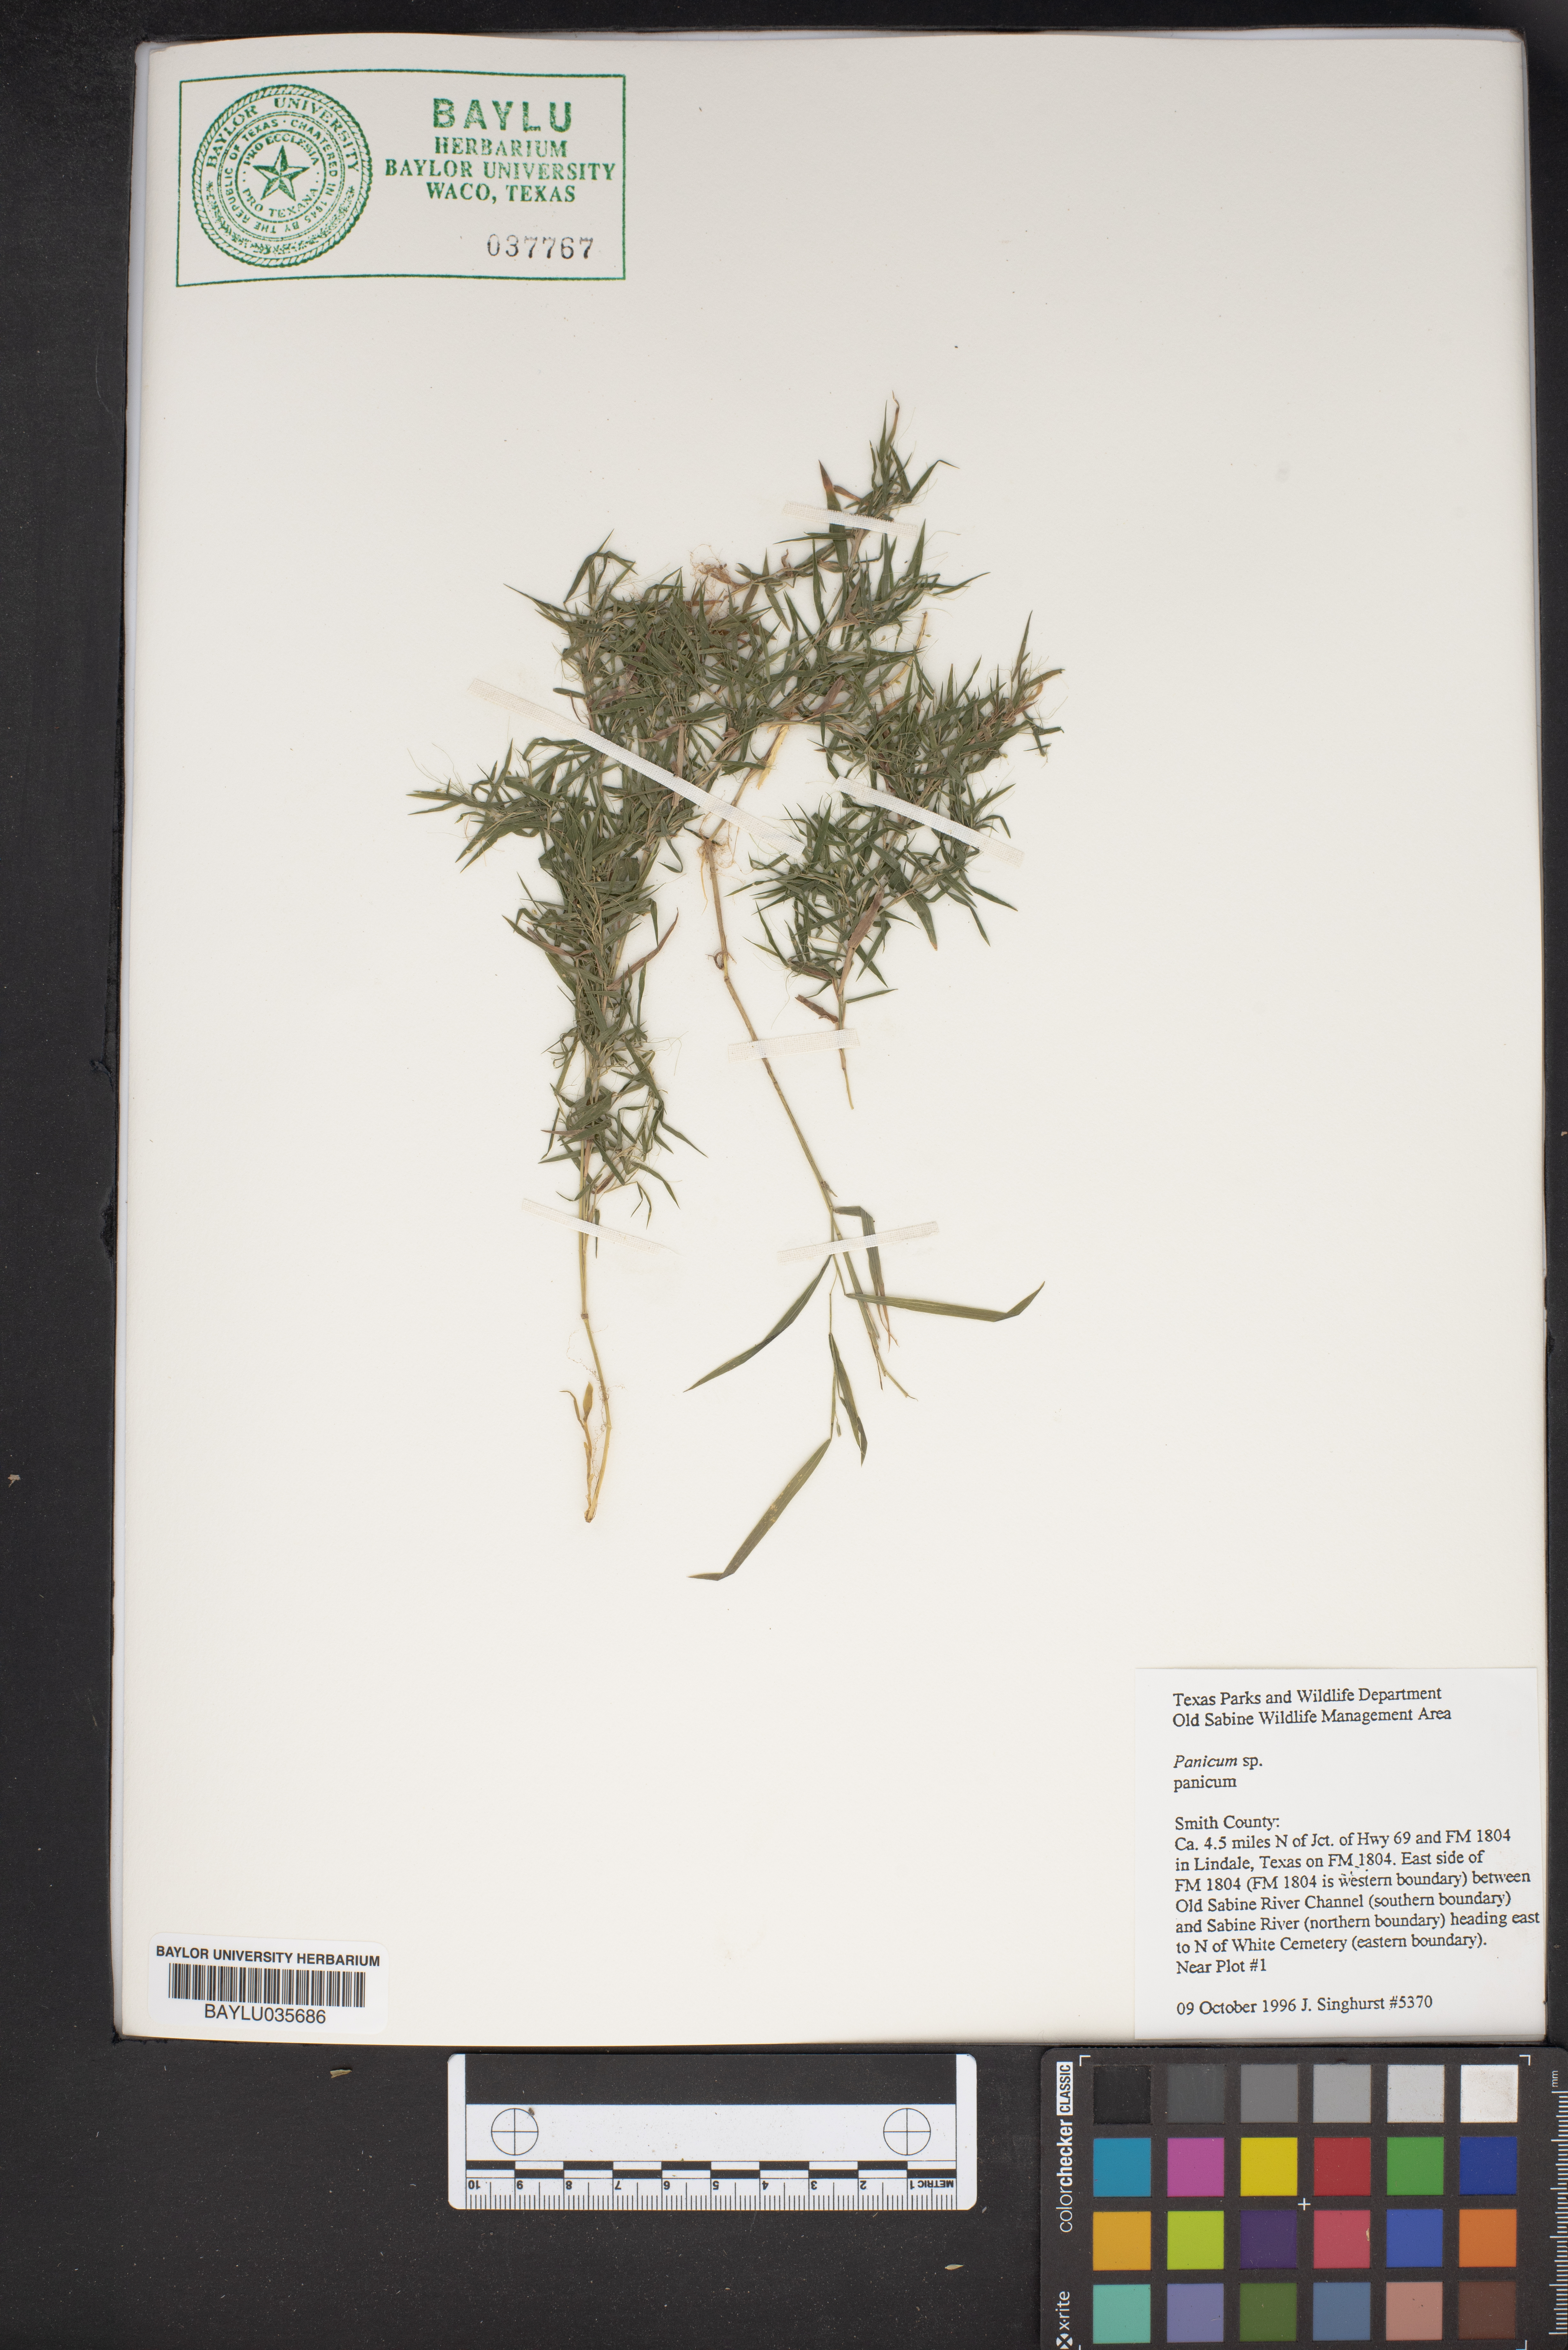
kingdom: Plantae
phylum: Tracheophyta
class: Liliopsida
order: Poales
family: Poaceae
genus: Panicum
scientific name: Panicum
